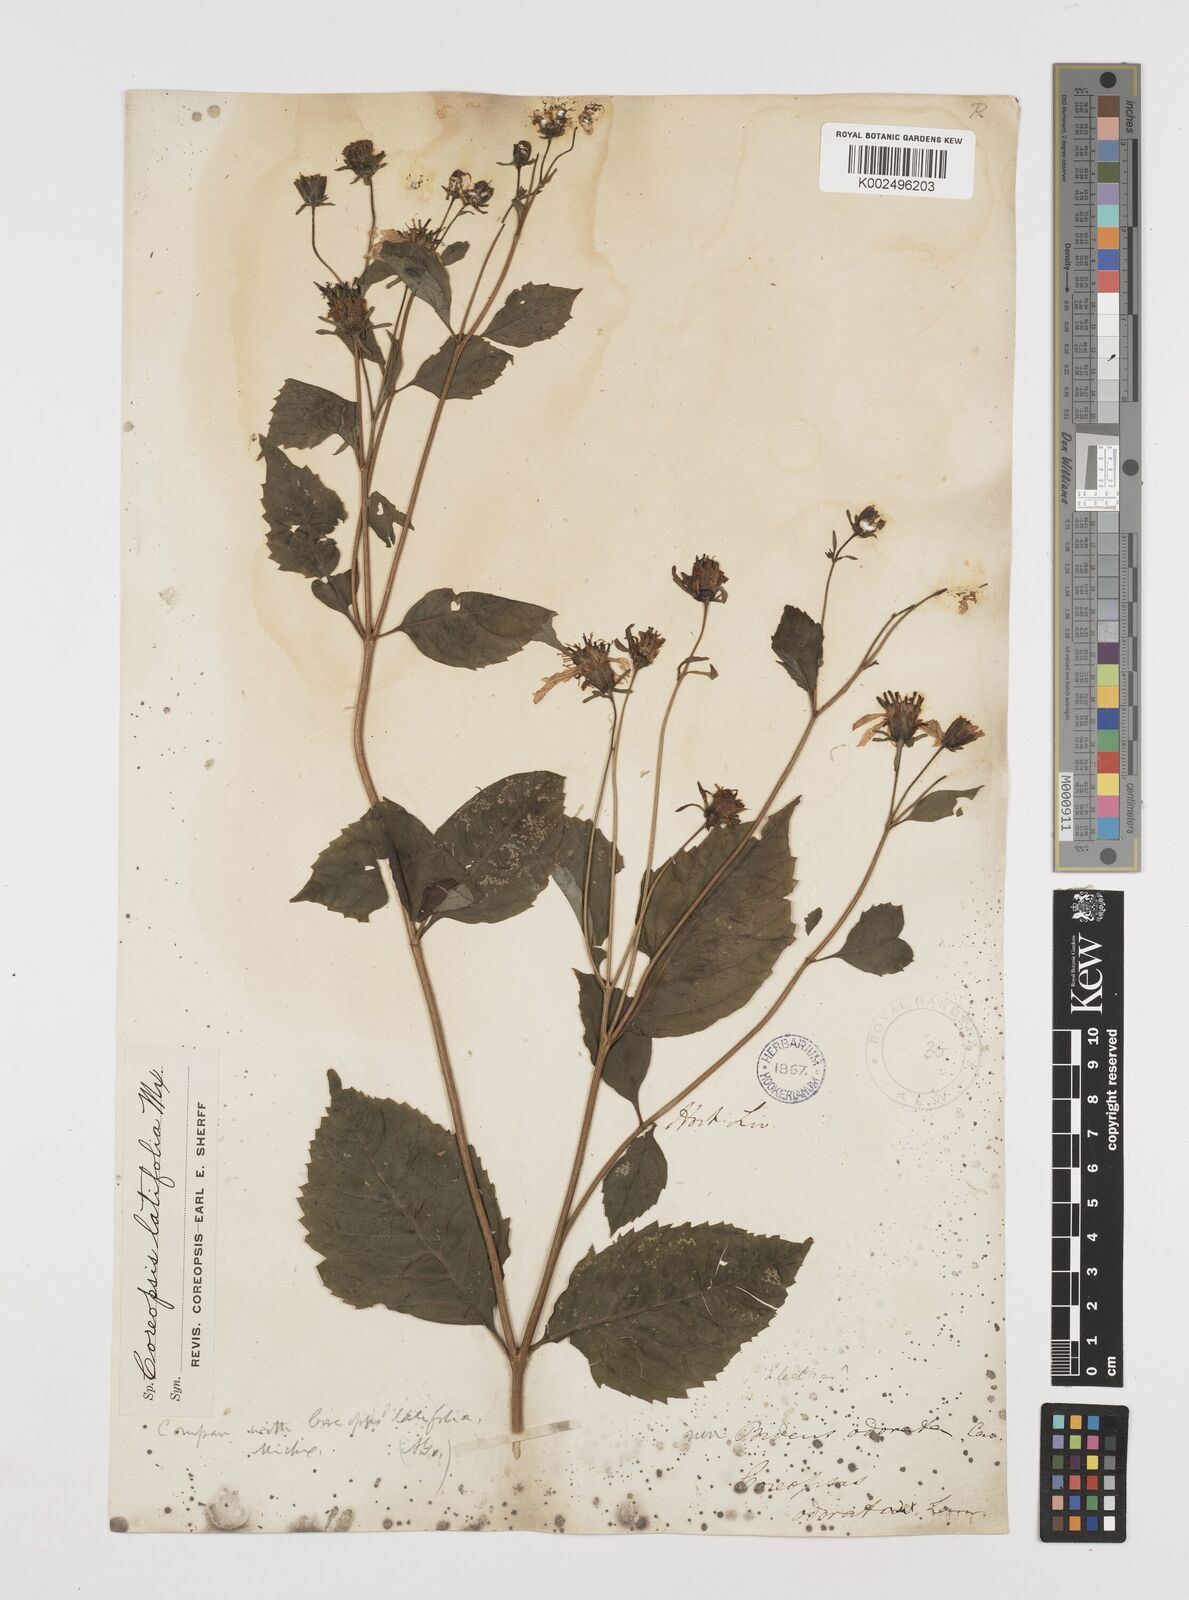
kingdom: Plantae
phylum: Tracheophyta
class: Magnoliopsida
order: Asterales
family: Asteraceae
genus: Coreopsis
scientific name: Coreopsis latifolia
